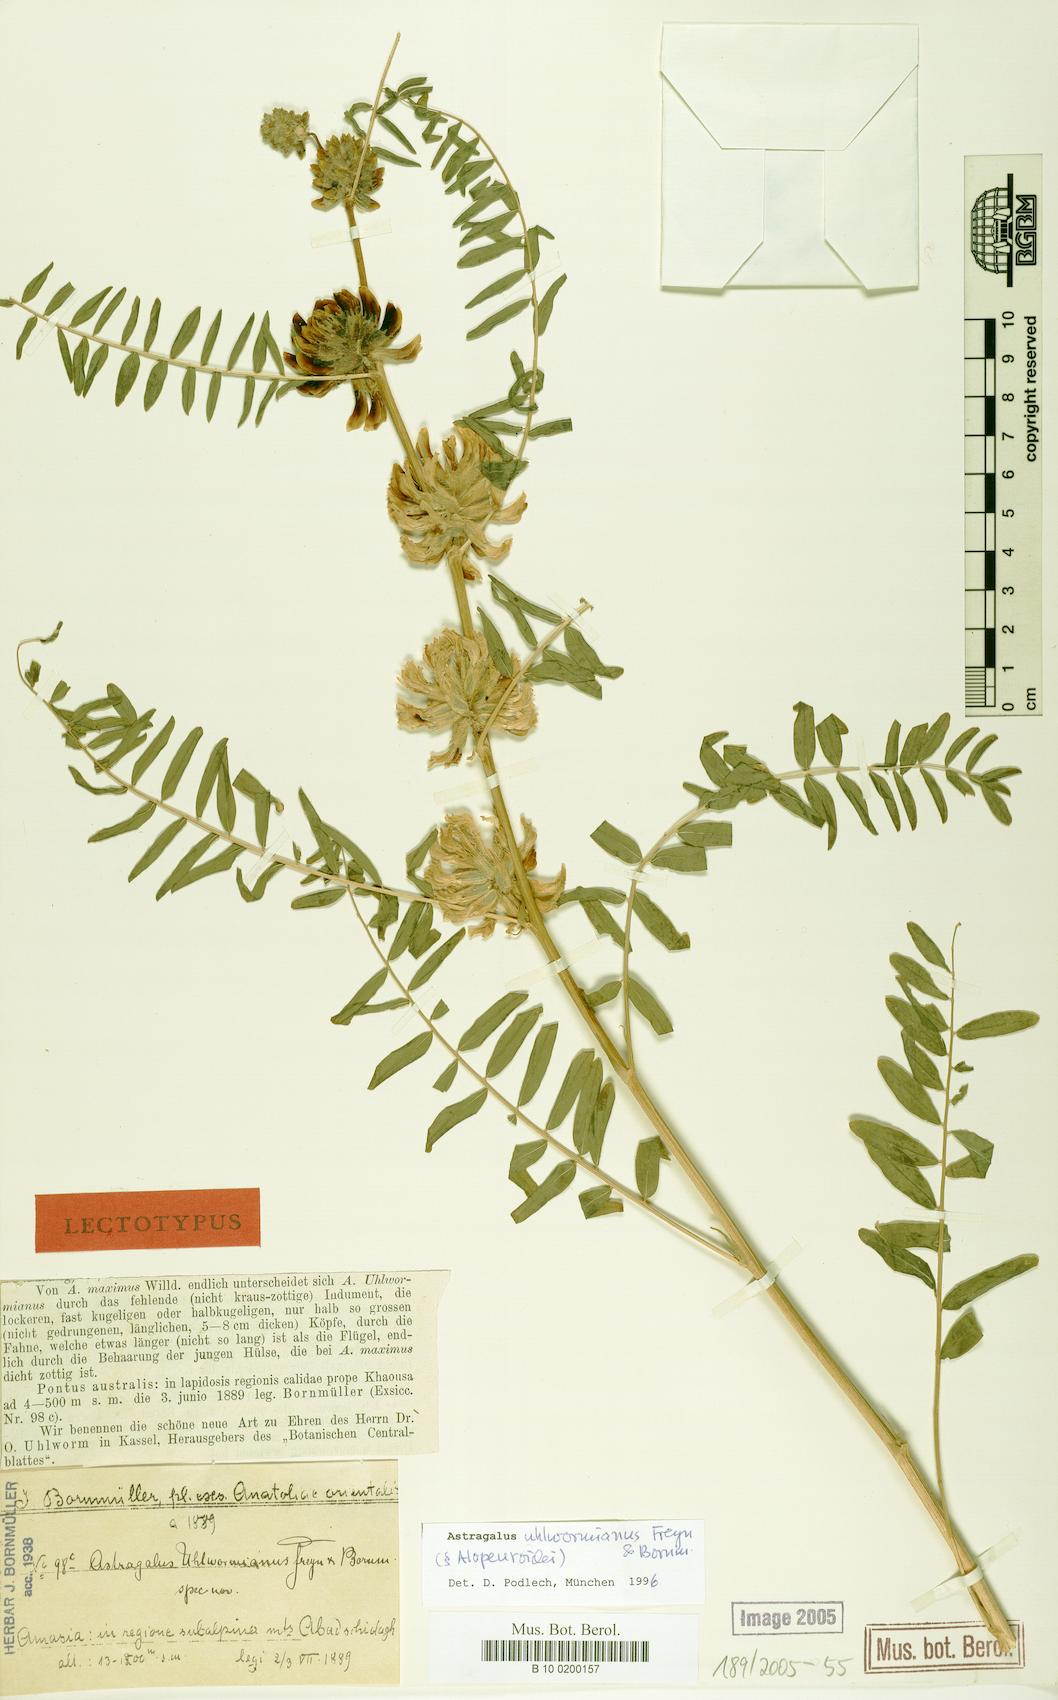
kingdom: Plantae
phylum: Tracheophyta
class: Magnoliopsida
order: Fabales
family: Fabaceae
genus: Astragalus
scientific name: Astragalus uhlwormianus
